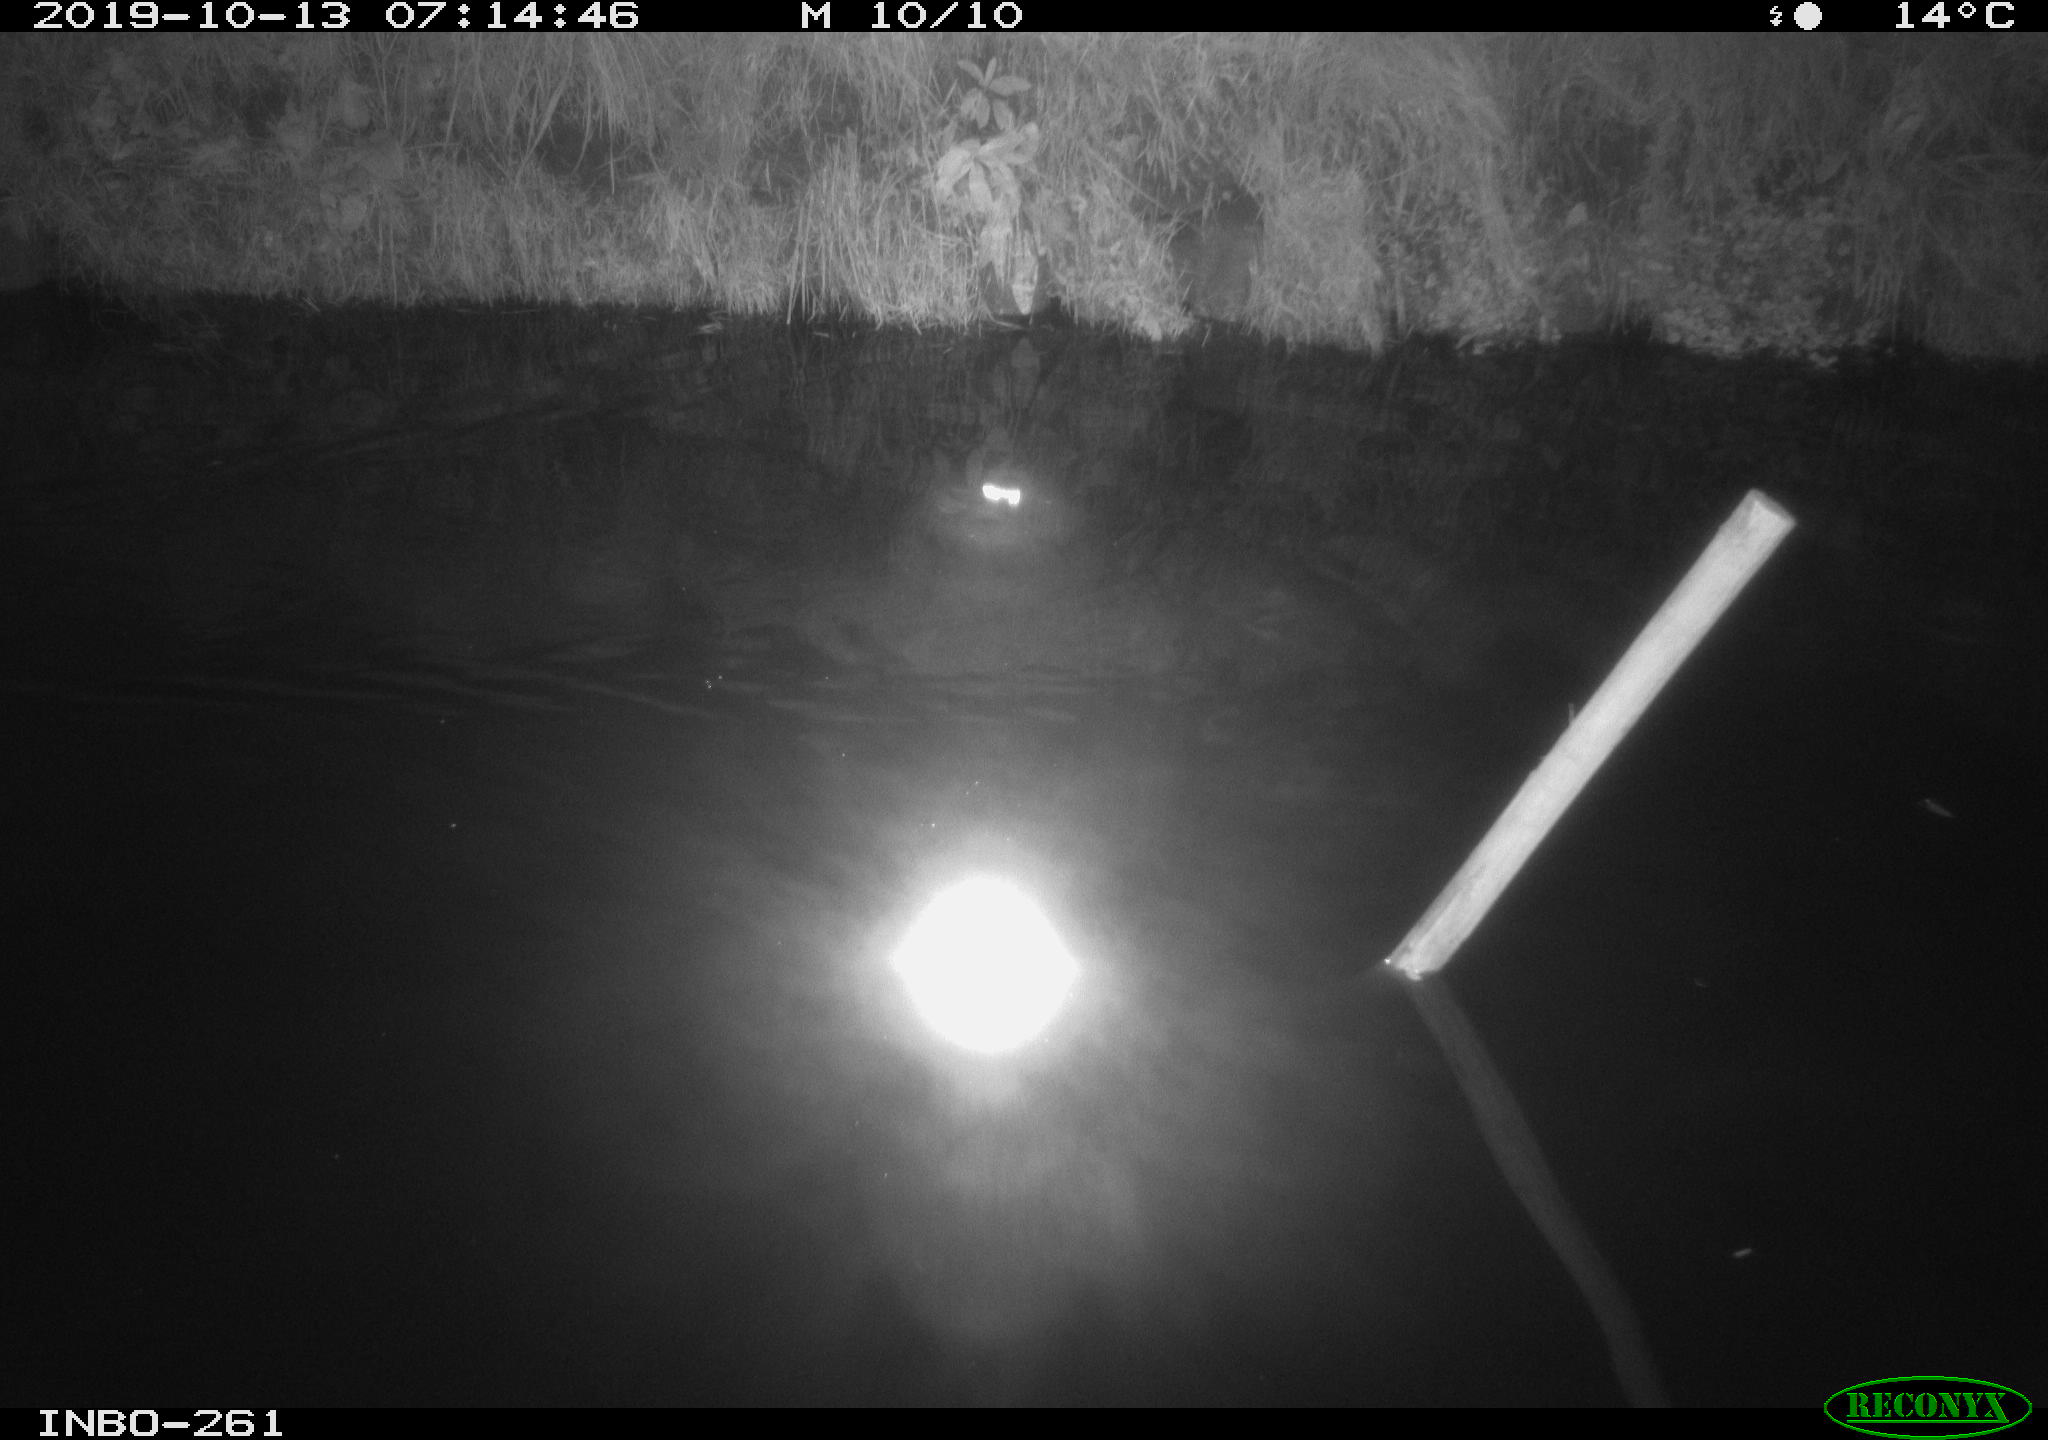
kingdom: Animalia
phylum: Chordata
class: Aves
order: Anseriformes
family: Anatidae
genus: Anas
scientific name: Anas platyrhynchos
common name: Mallard
